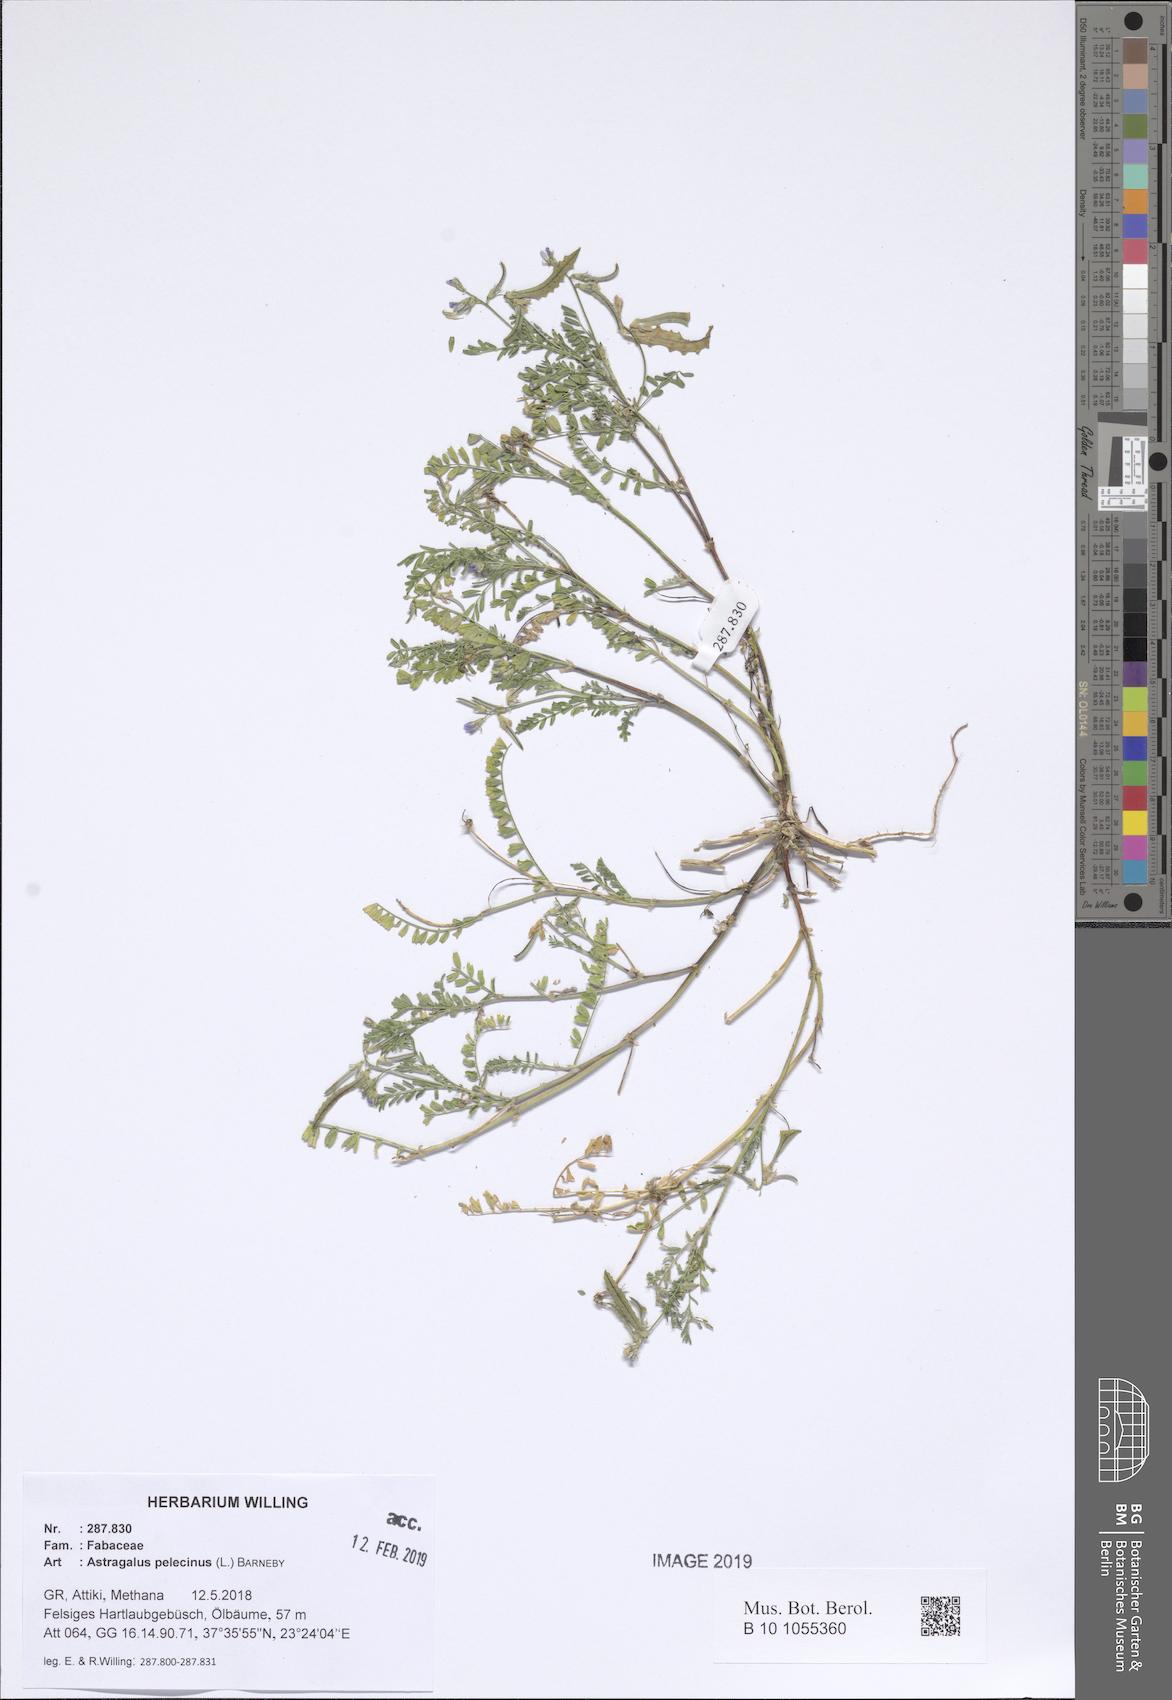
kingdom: Plantae
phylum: Tracheophyta
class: Magnoliopsida
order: Fabales
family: Fabaceae
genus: Biserrula
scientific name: Biserrula pelecinus
